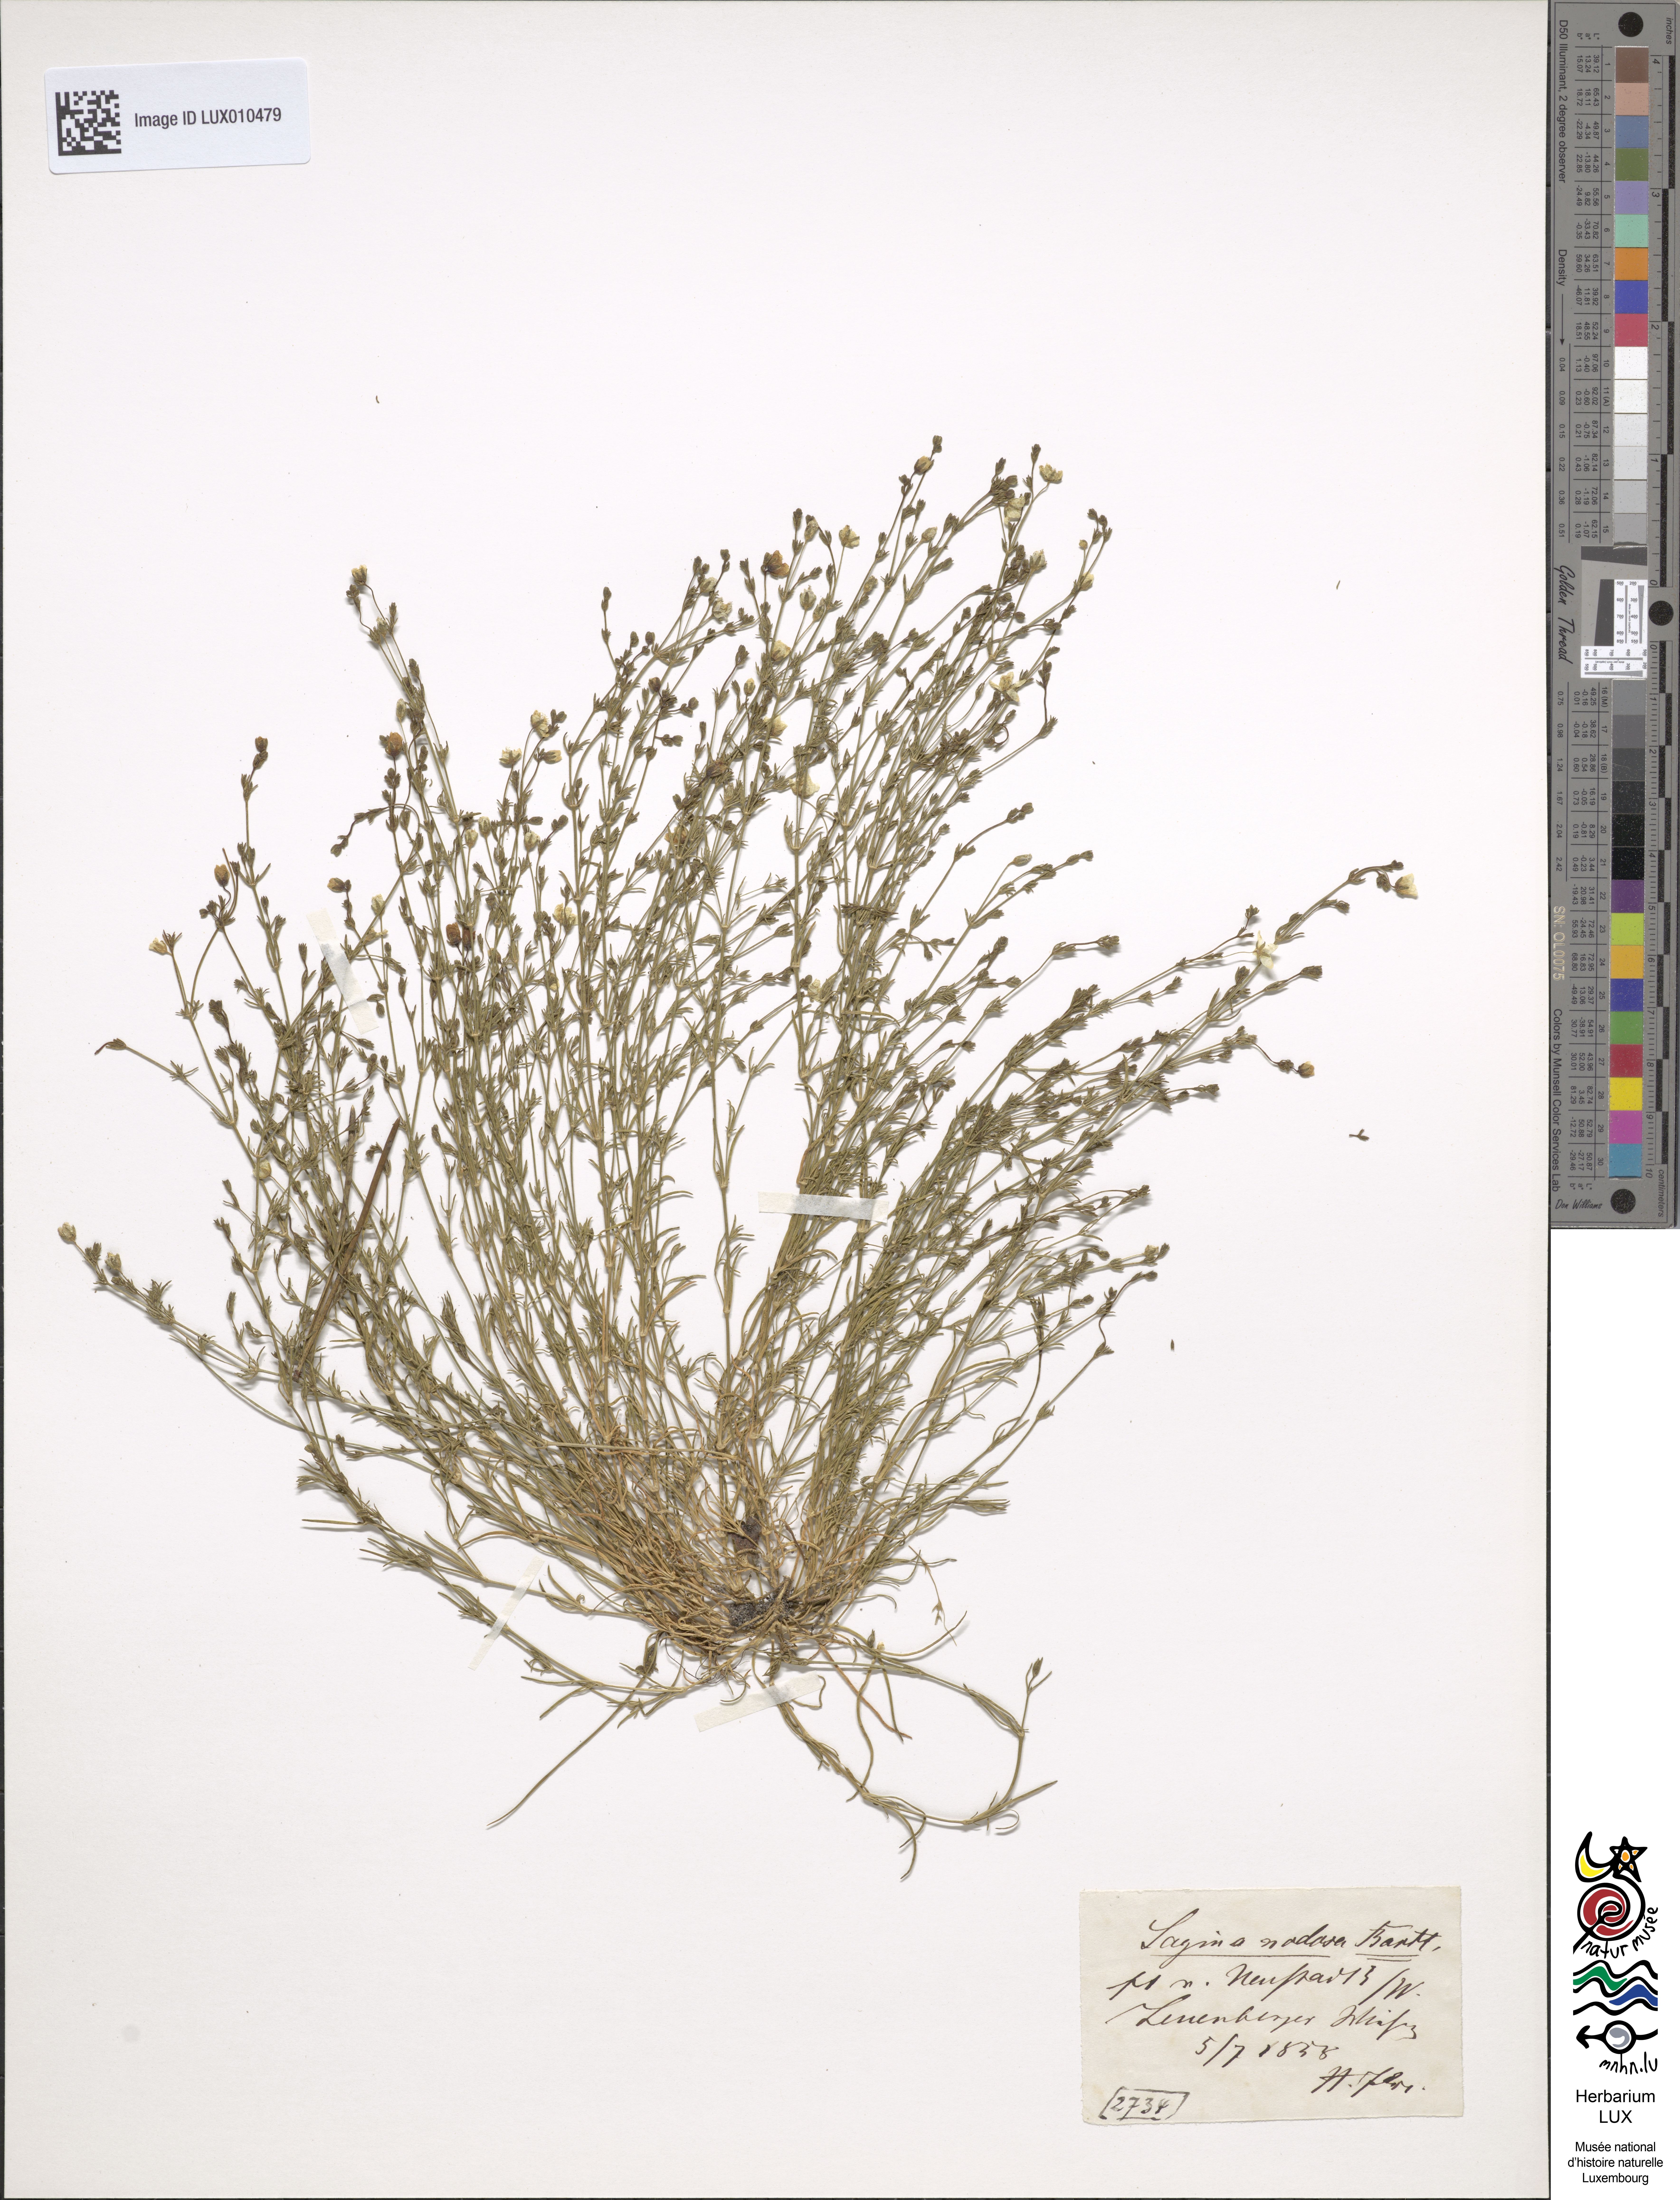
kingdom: Plantae
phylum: Tracheophyta
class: Magnoliopsida
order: Caryophyllales
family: Caryophyllaceae
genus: Sagina
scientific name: Sagina nodosa
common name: Knotted pearlwort
